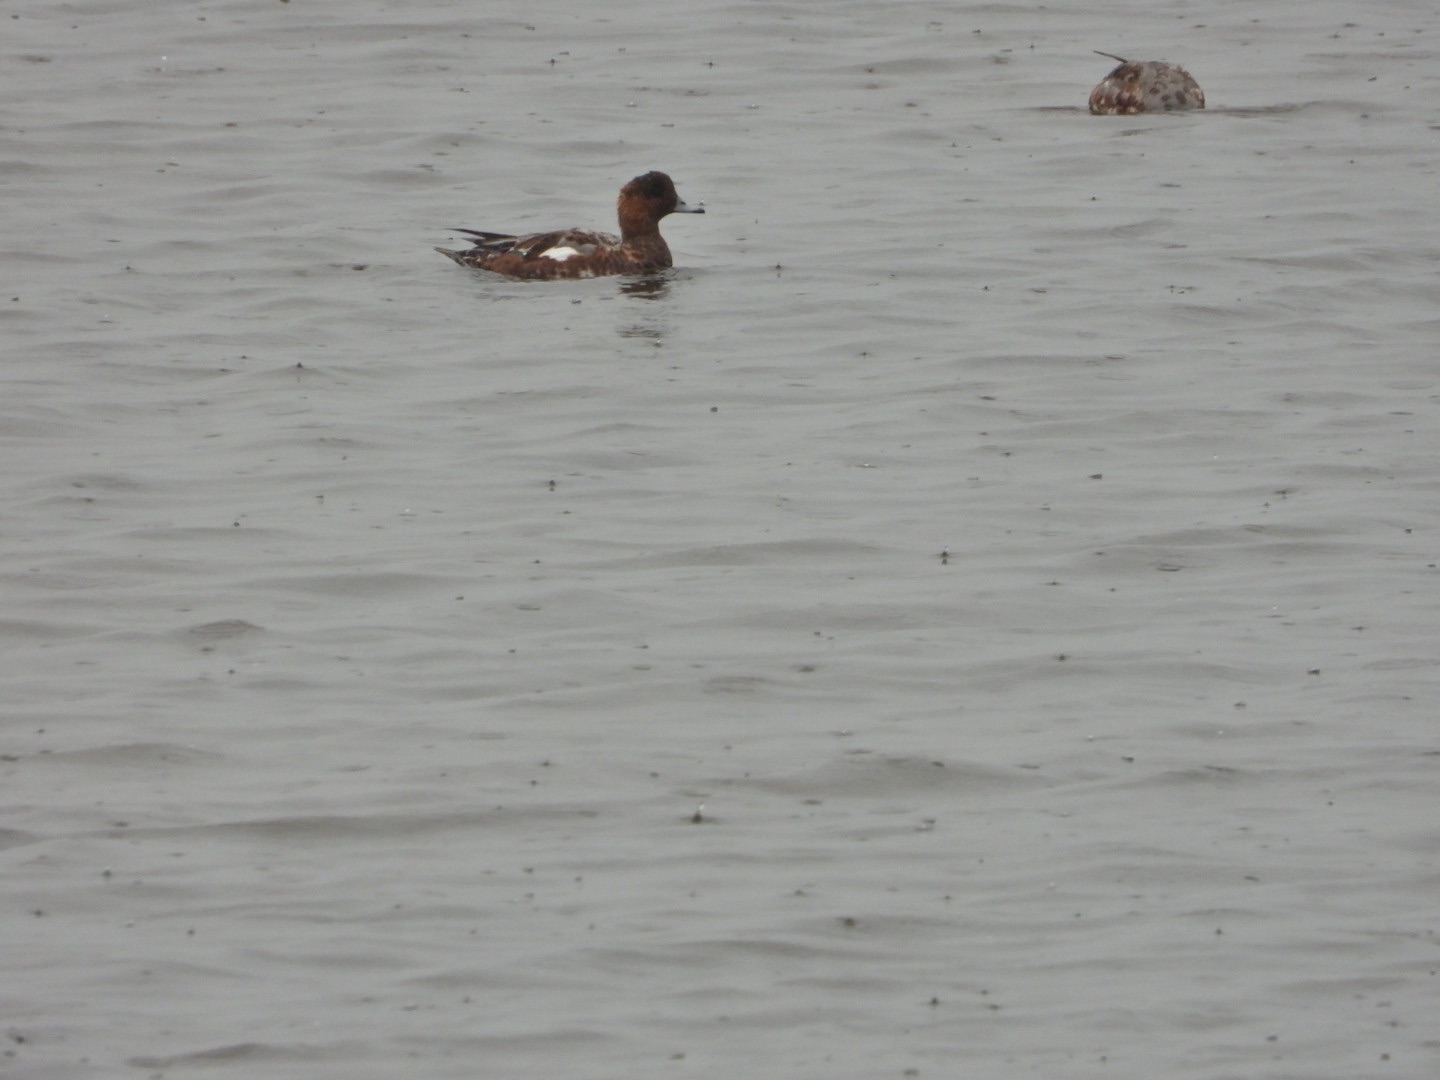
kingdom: Animalia
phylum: Chordata
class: Aves
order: Anseriformes
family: Anatidae
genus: Mareca
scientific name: Mareca penelope
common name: Pibeand
